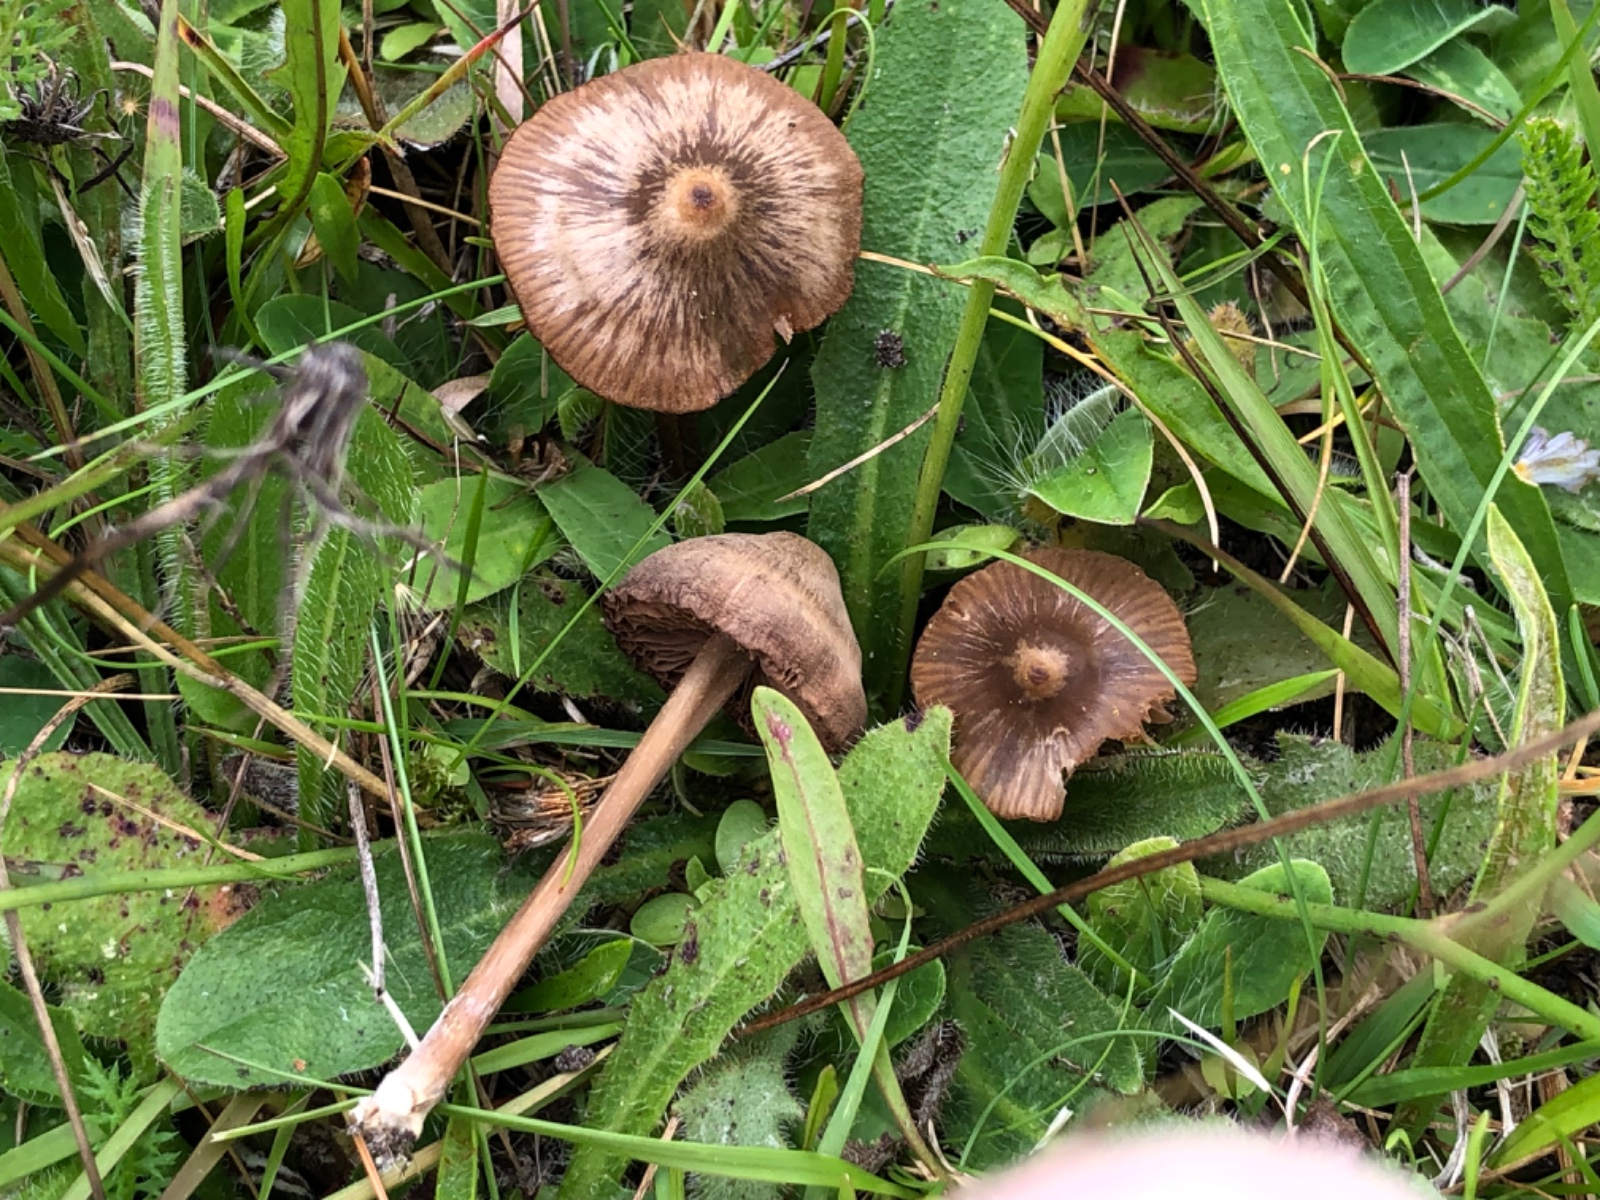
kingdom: Fungi
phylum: Basidiomycota
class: Agaricomycetes
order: Agaricales
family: Entolomataceae
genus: Entoloma
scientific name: Entoloma clandestinum
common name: tykbladet rødblad
